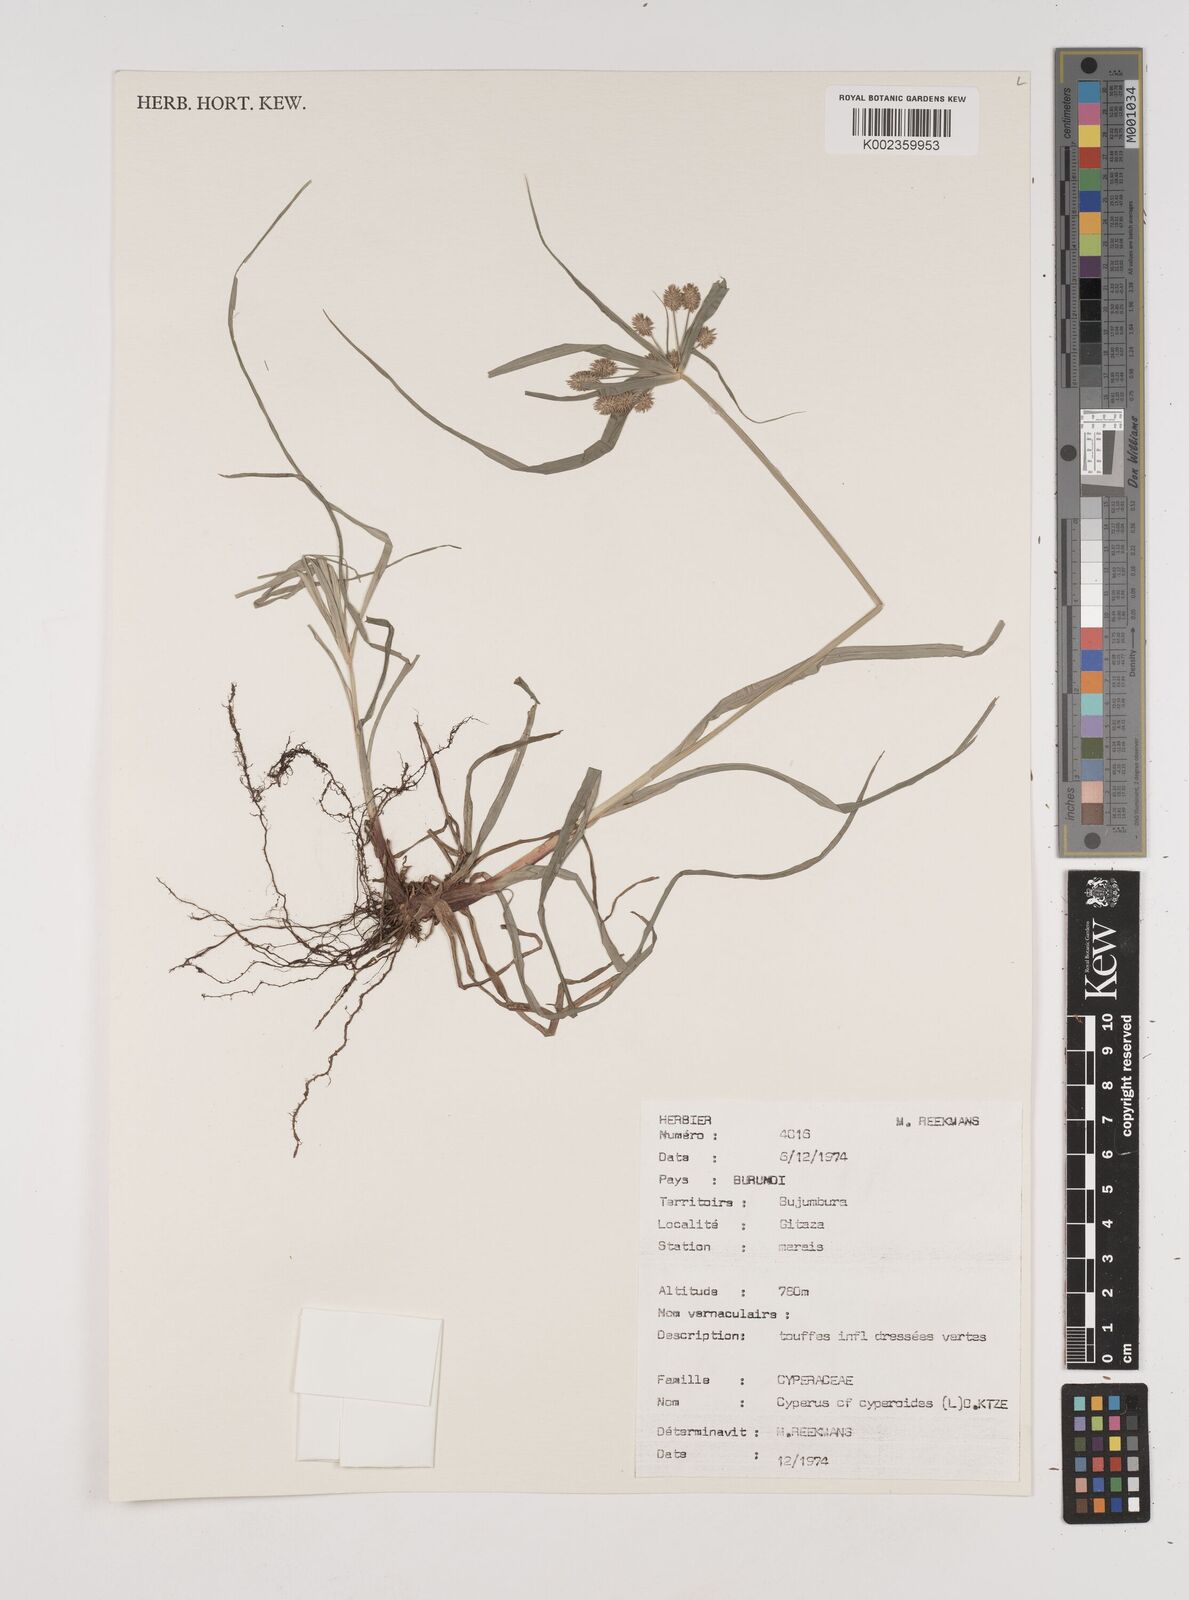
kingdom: Plantae
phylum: Tracheophyta
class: Liliopsida
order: Poales
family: Cyperaceae
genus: Cyperus
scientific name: Cyperus cyperoides
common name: Pacific island flat sedge
